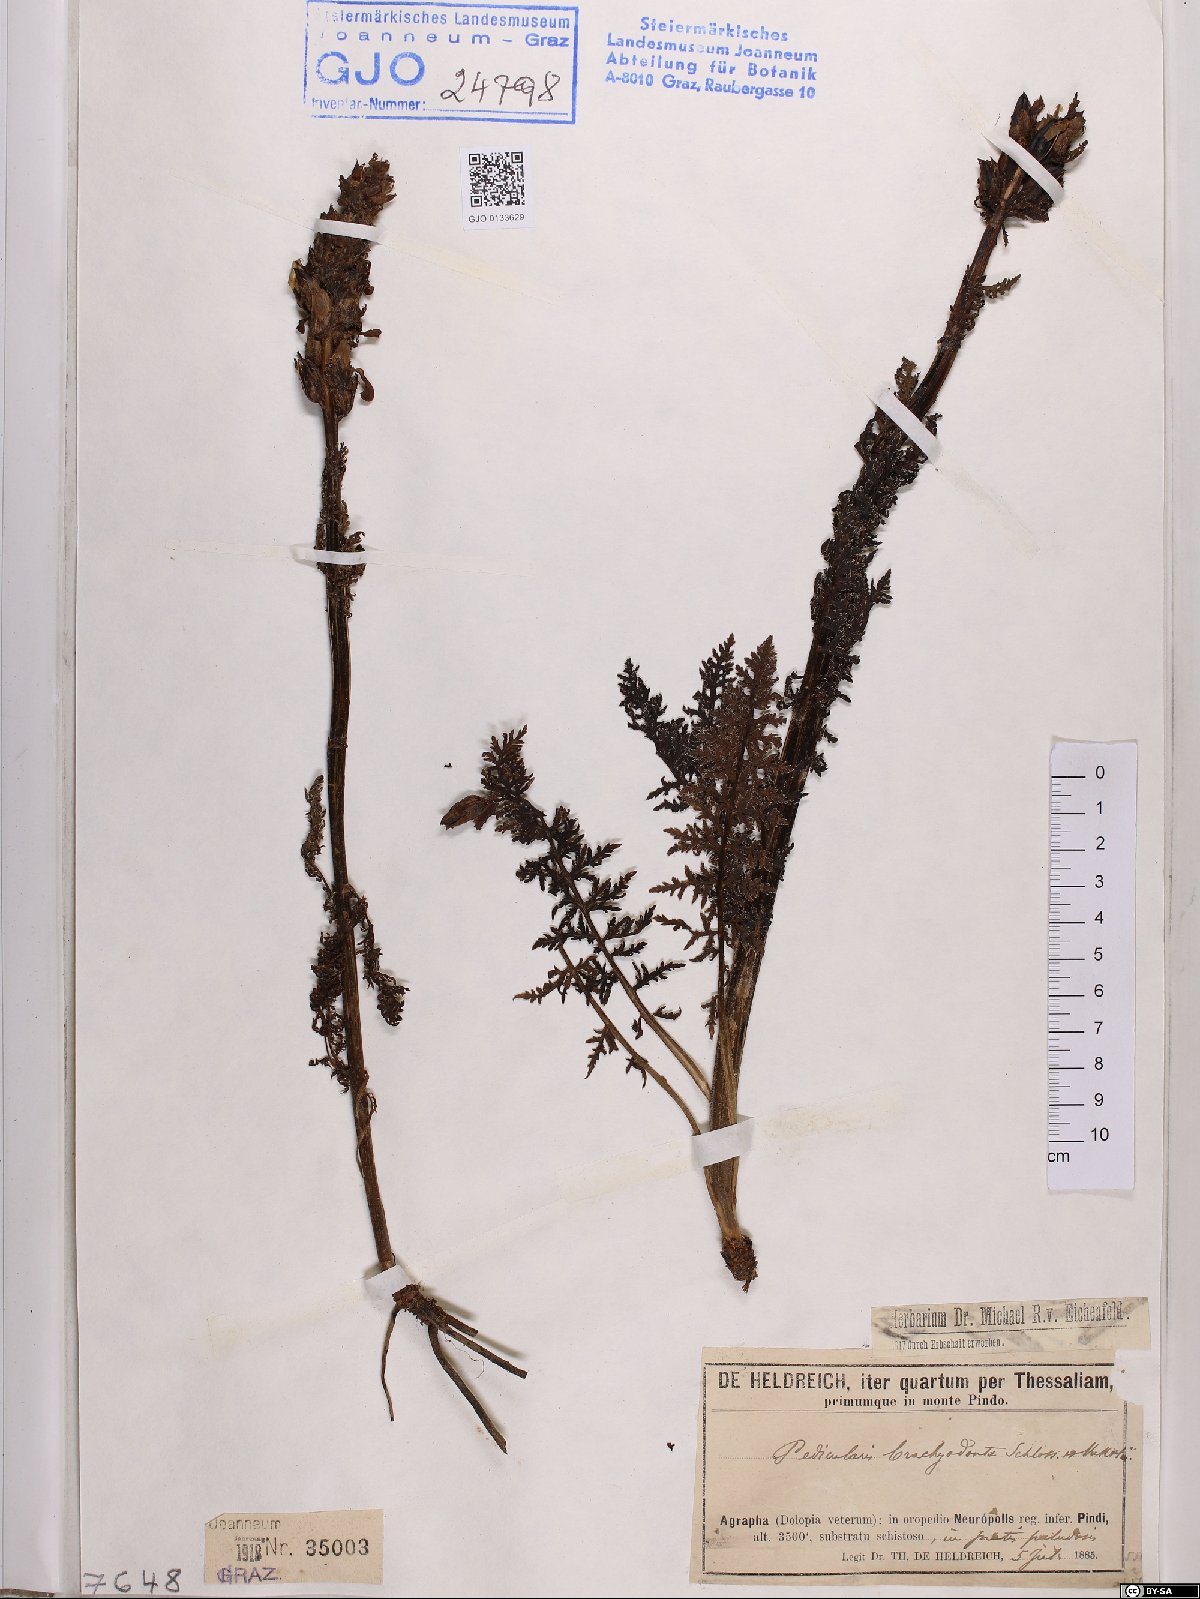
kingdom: Plantae
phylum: Tracheophyta
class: Magnoliopsida
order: Lamiales
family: Orobanchaceae
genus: Pedicularis
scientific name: Pedicularis brachyodonta
